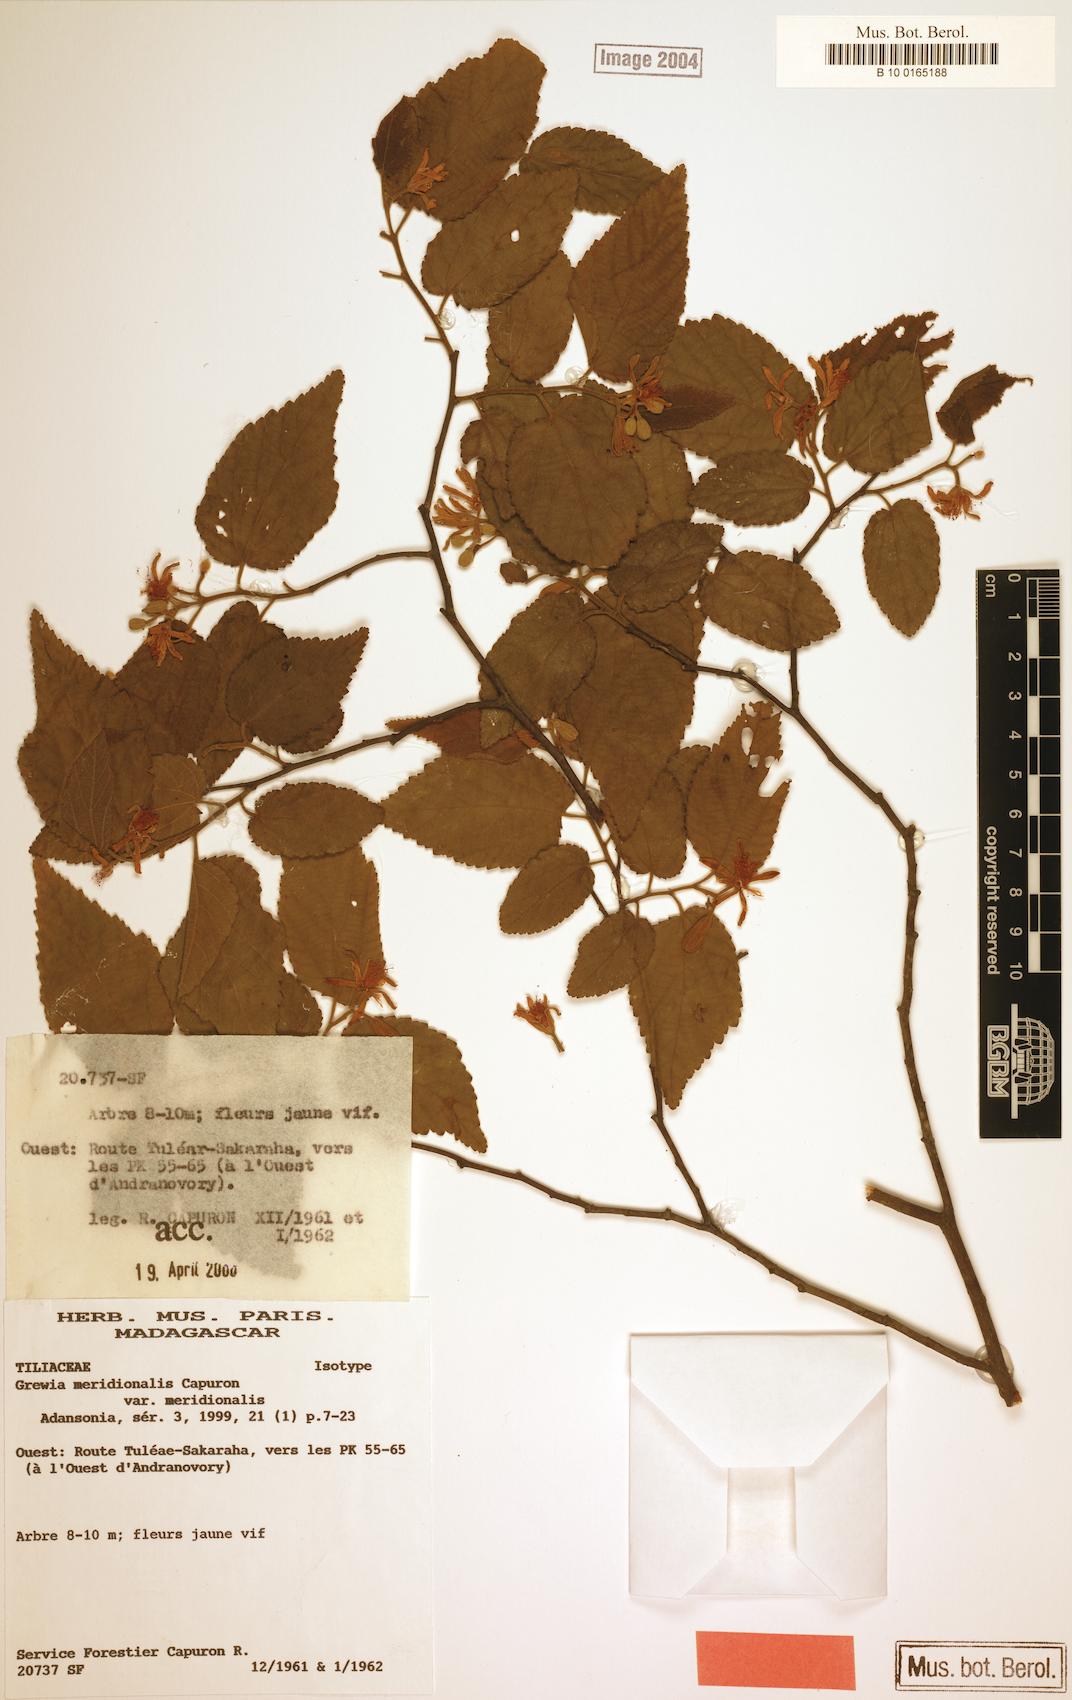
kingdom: Plantae
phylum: Tracheophyta
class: Magnoliopsida
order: Malvales
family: Malvaceae
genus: Grewia
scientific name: Grewia meridionalis
